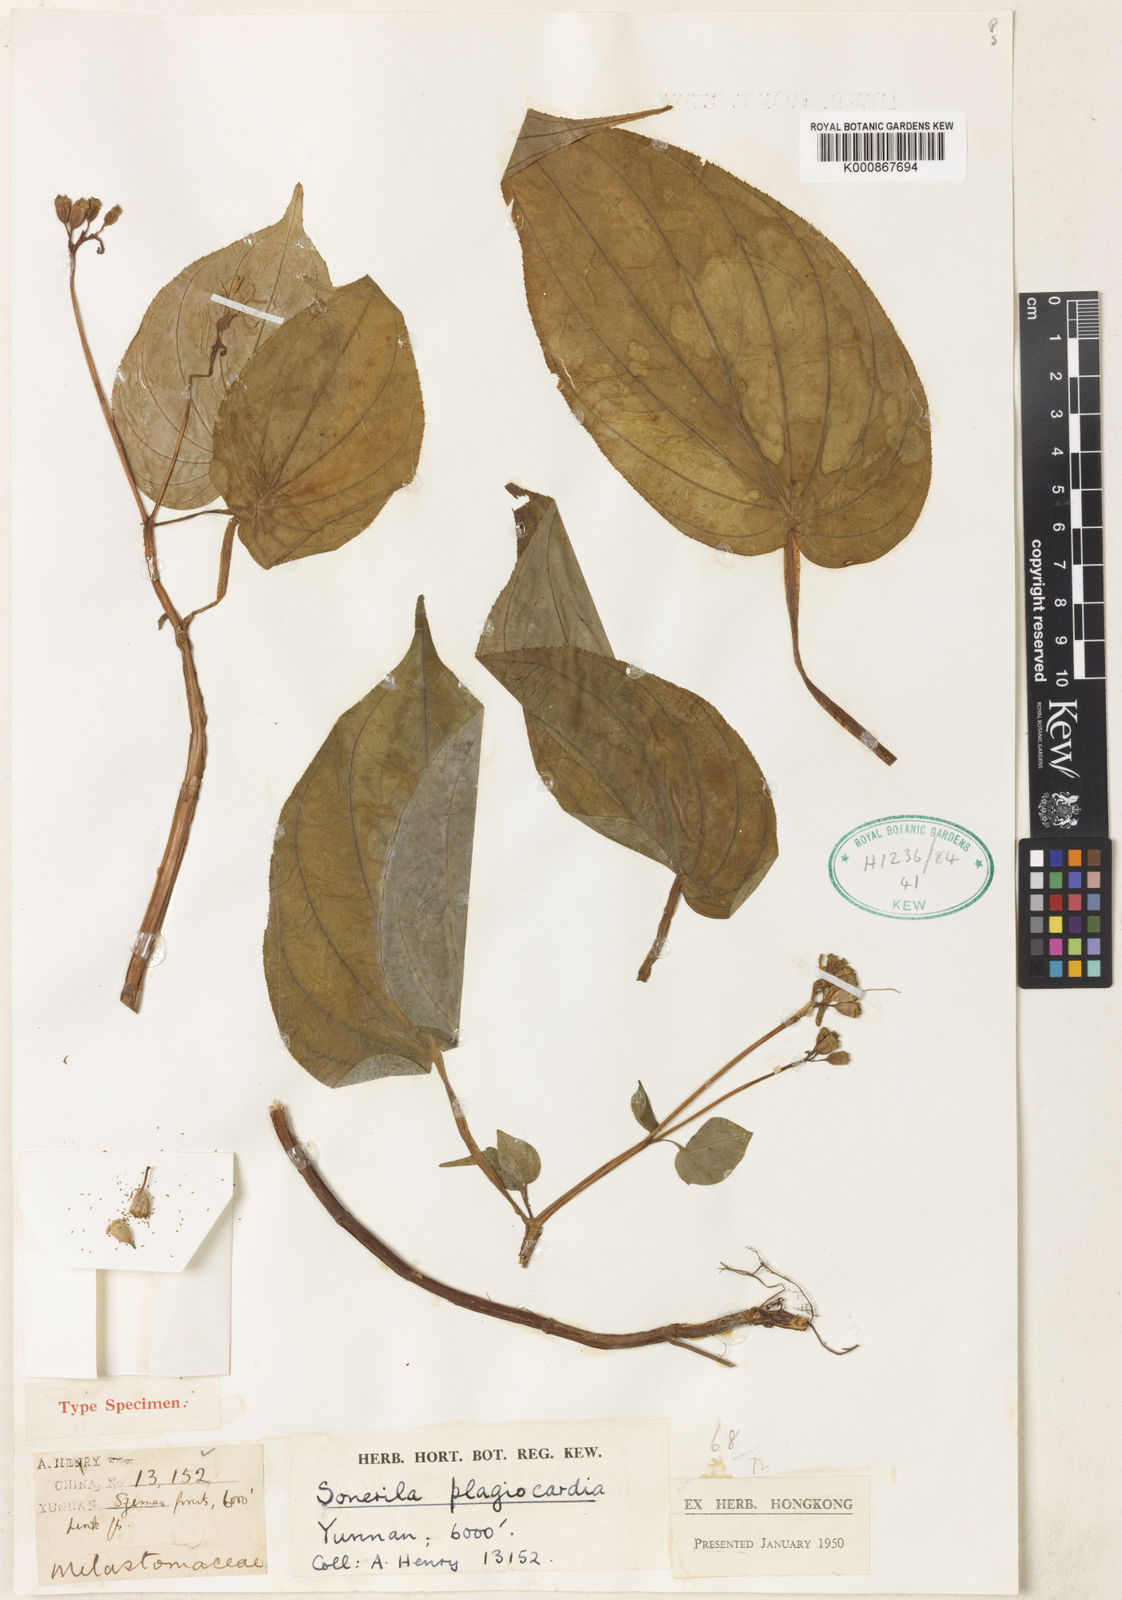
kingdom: Plantae
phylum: Tracheophyta
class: Magnoliopsida
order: Myrtales
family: Melastomataceae
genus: Sonerila
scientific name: Sonerila plagiocardia
